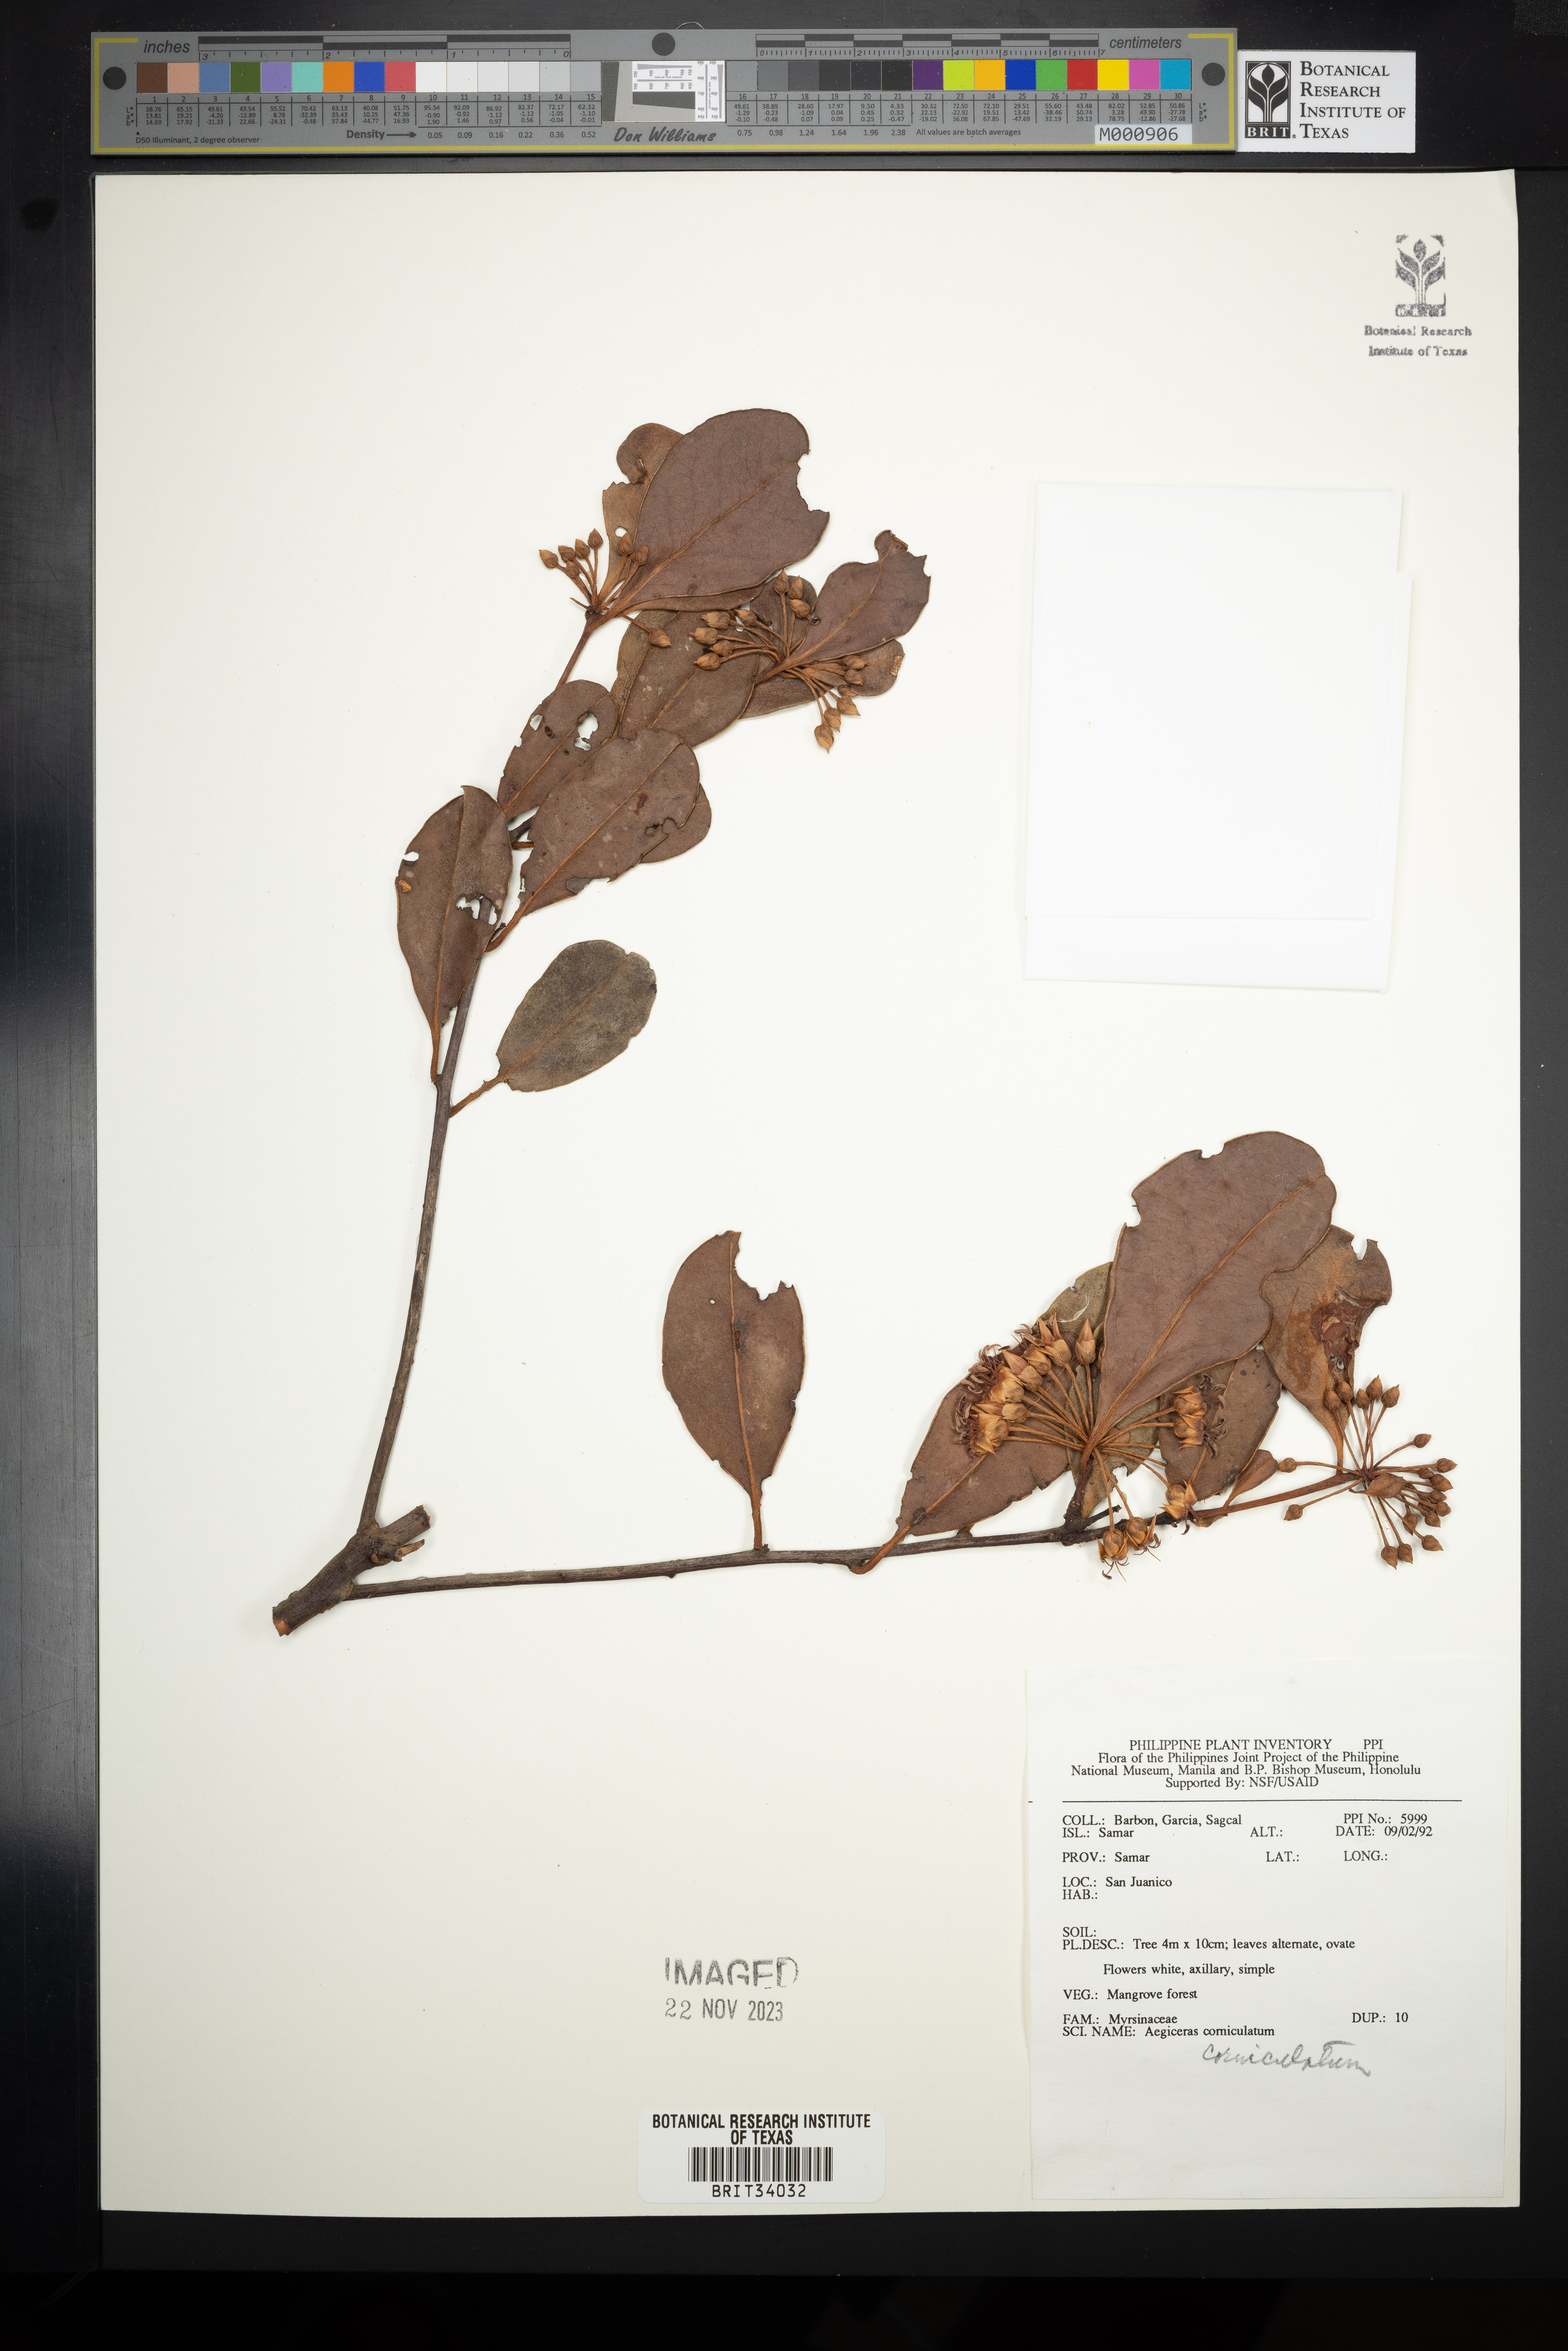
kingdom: Plantae
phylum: Tracheophyta
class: Magnoliopsida
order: Ericales
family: Primulaceae
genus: Aegiceras
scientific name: Aegiceras corniculatum
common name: River mangrove
